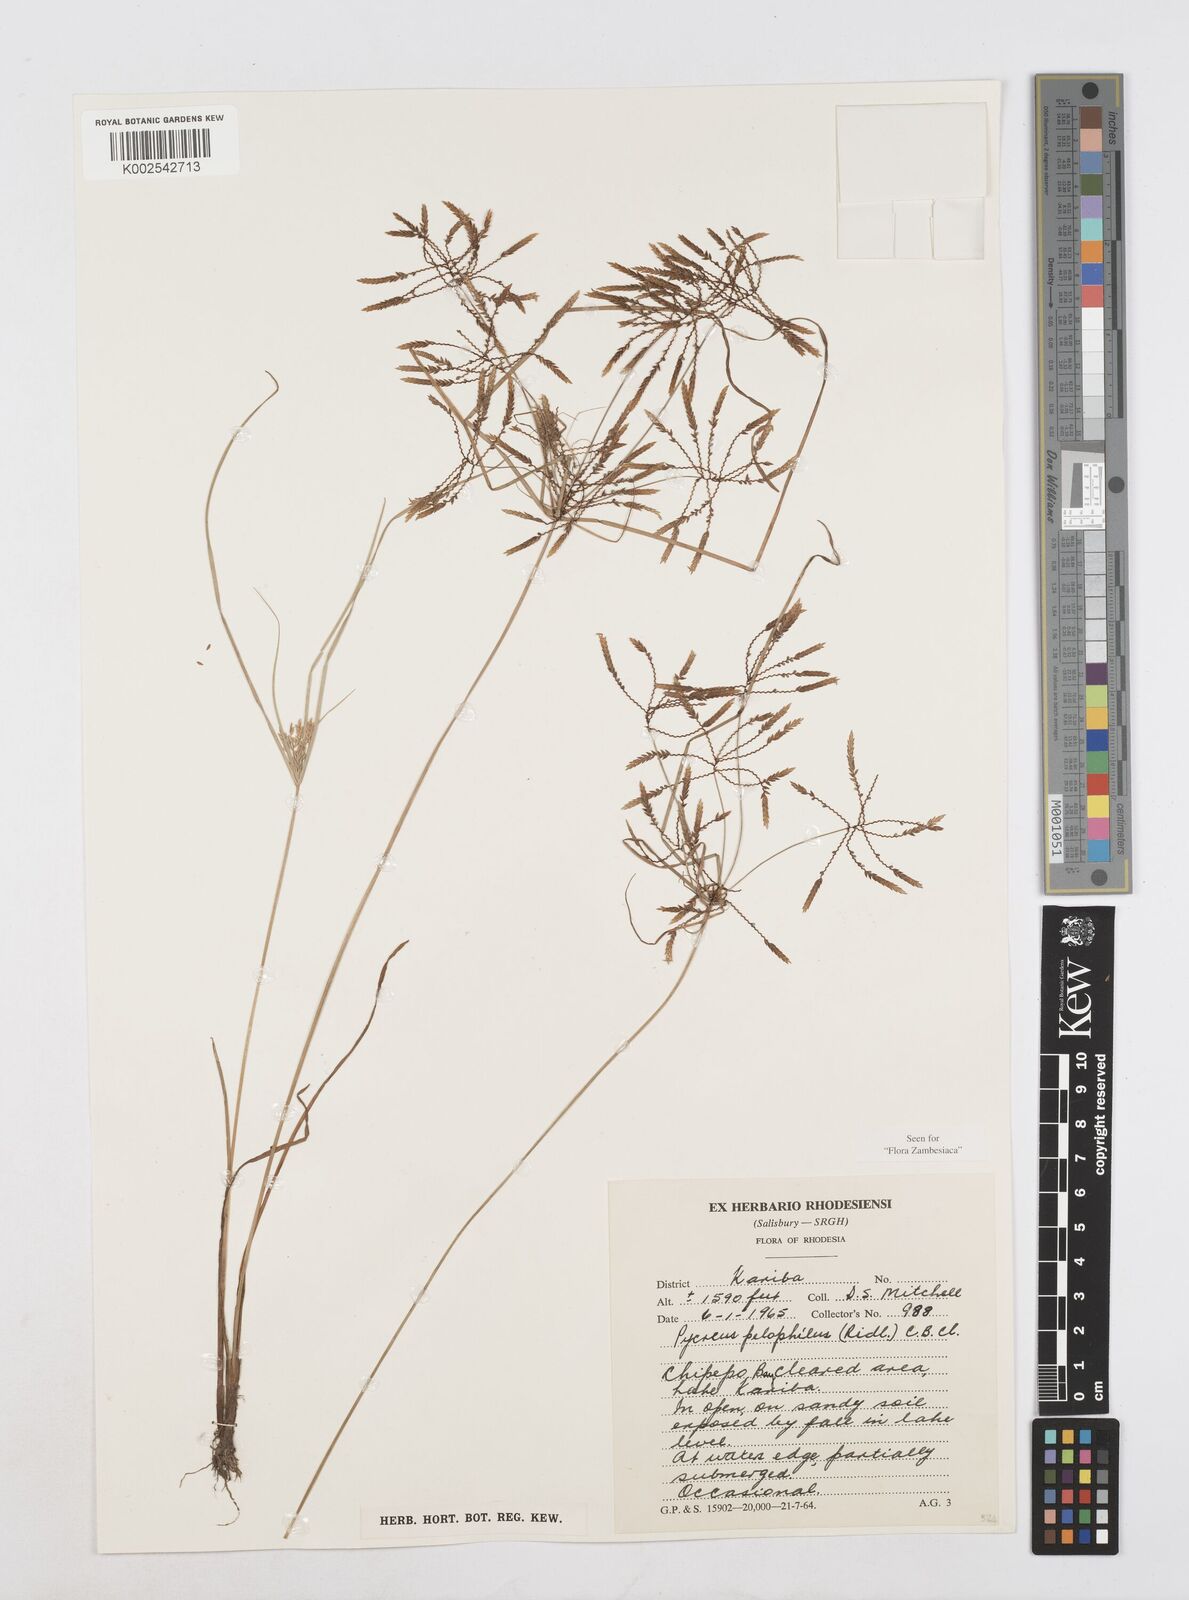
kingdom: Plantae
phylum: Tracheophyta
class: Liliopsida
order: Poales
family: Cyperaceae
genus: Cyperus
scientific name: Cyperus pelophilus
